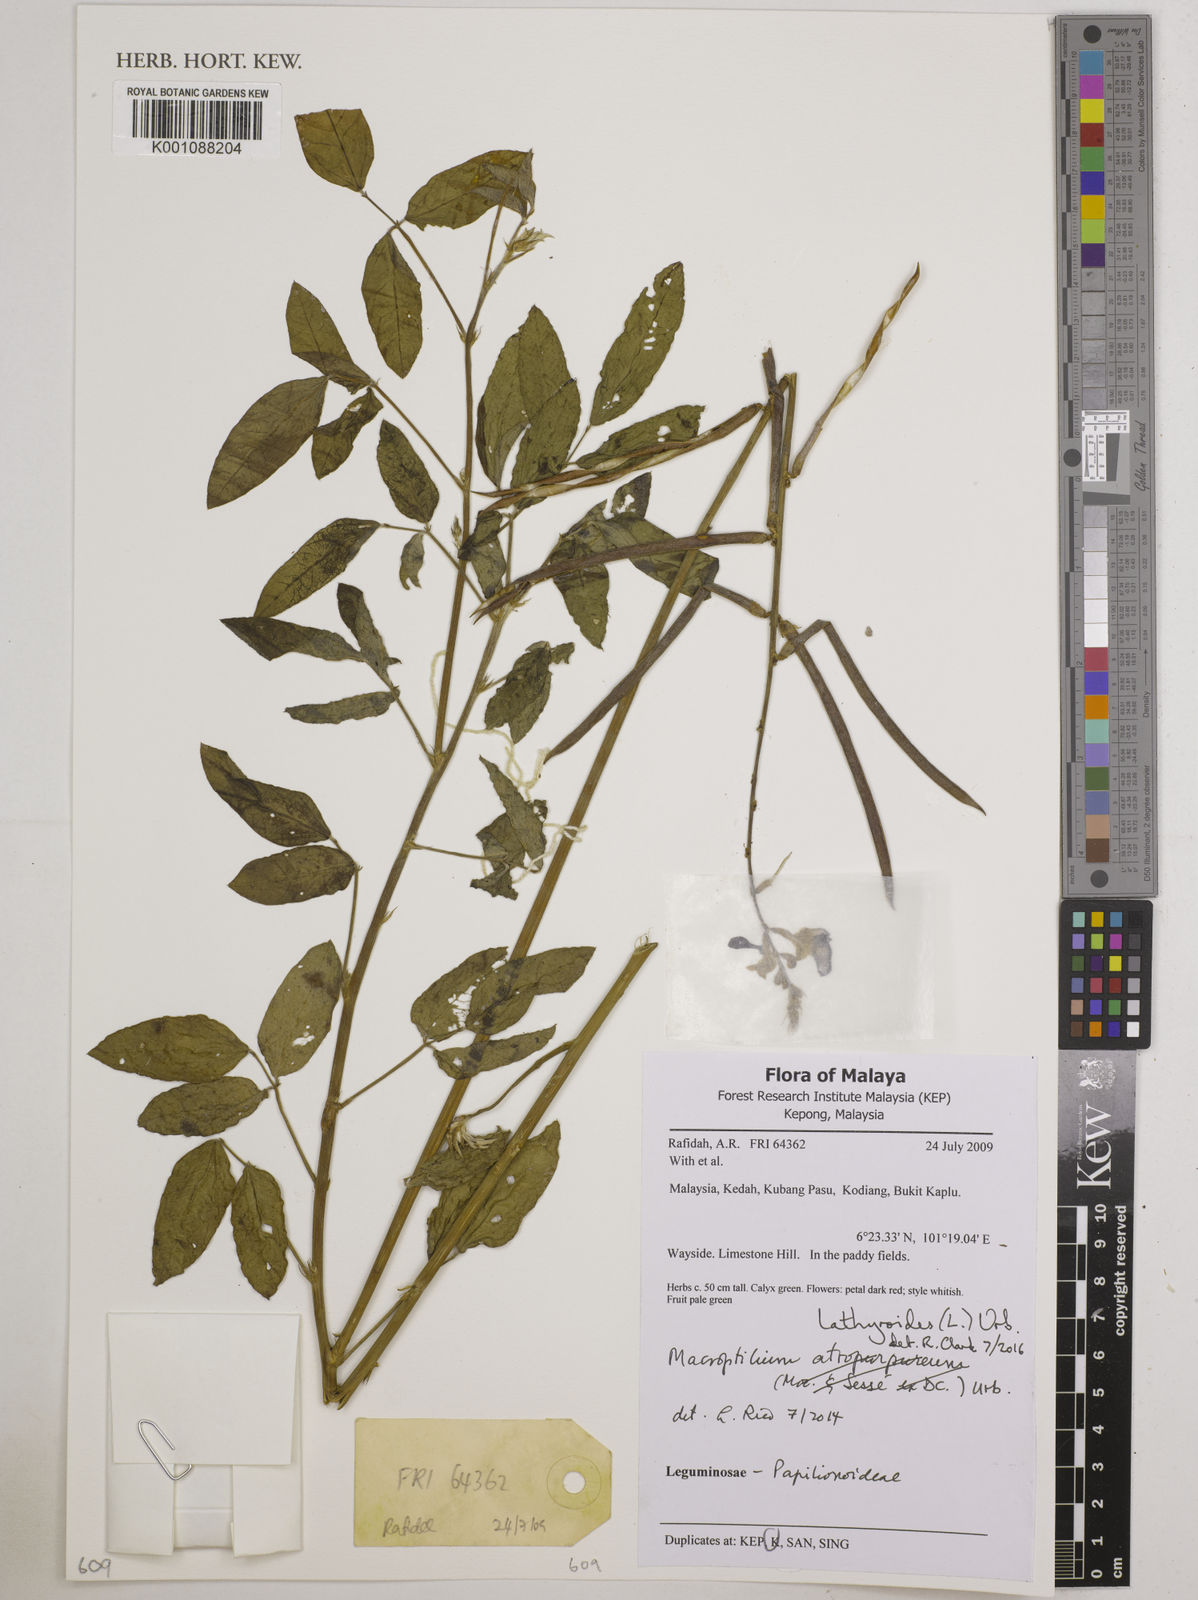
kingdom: Plantae
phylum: Tracheophyta
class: Magnoliopsida
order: Fabales
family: Fabaceae
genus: Macroptilium
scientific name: Macroptilium
